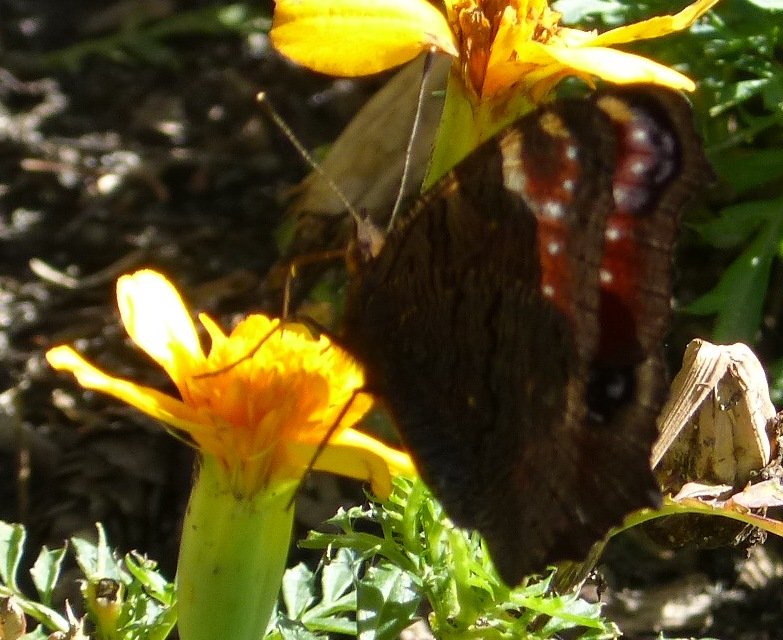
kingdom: Animalia
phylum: Arthropoda
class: Insecta
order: Lepidoptera
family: Nymphalidae
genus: Aglais
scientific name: Aglais io
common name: European Peacock
